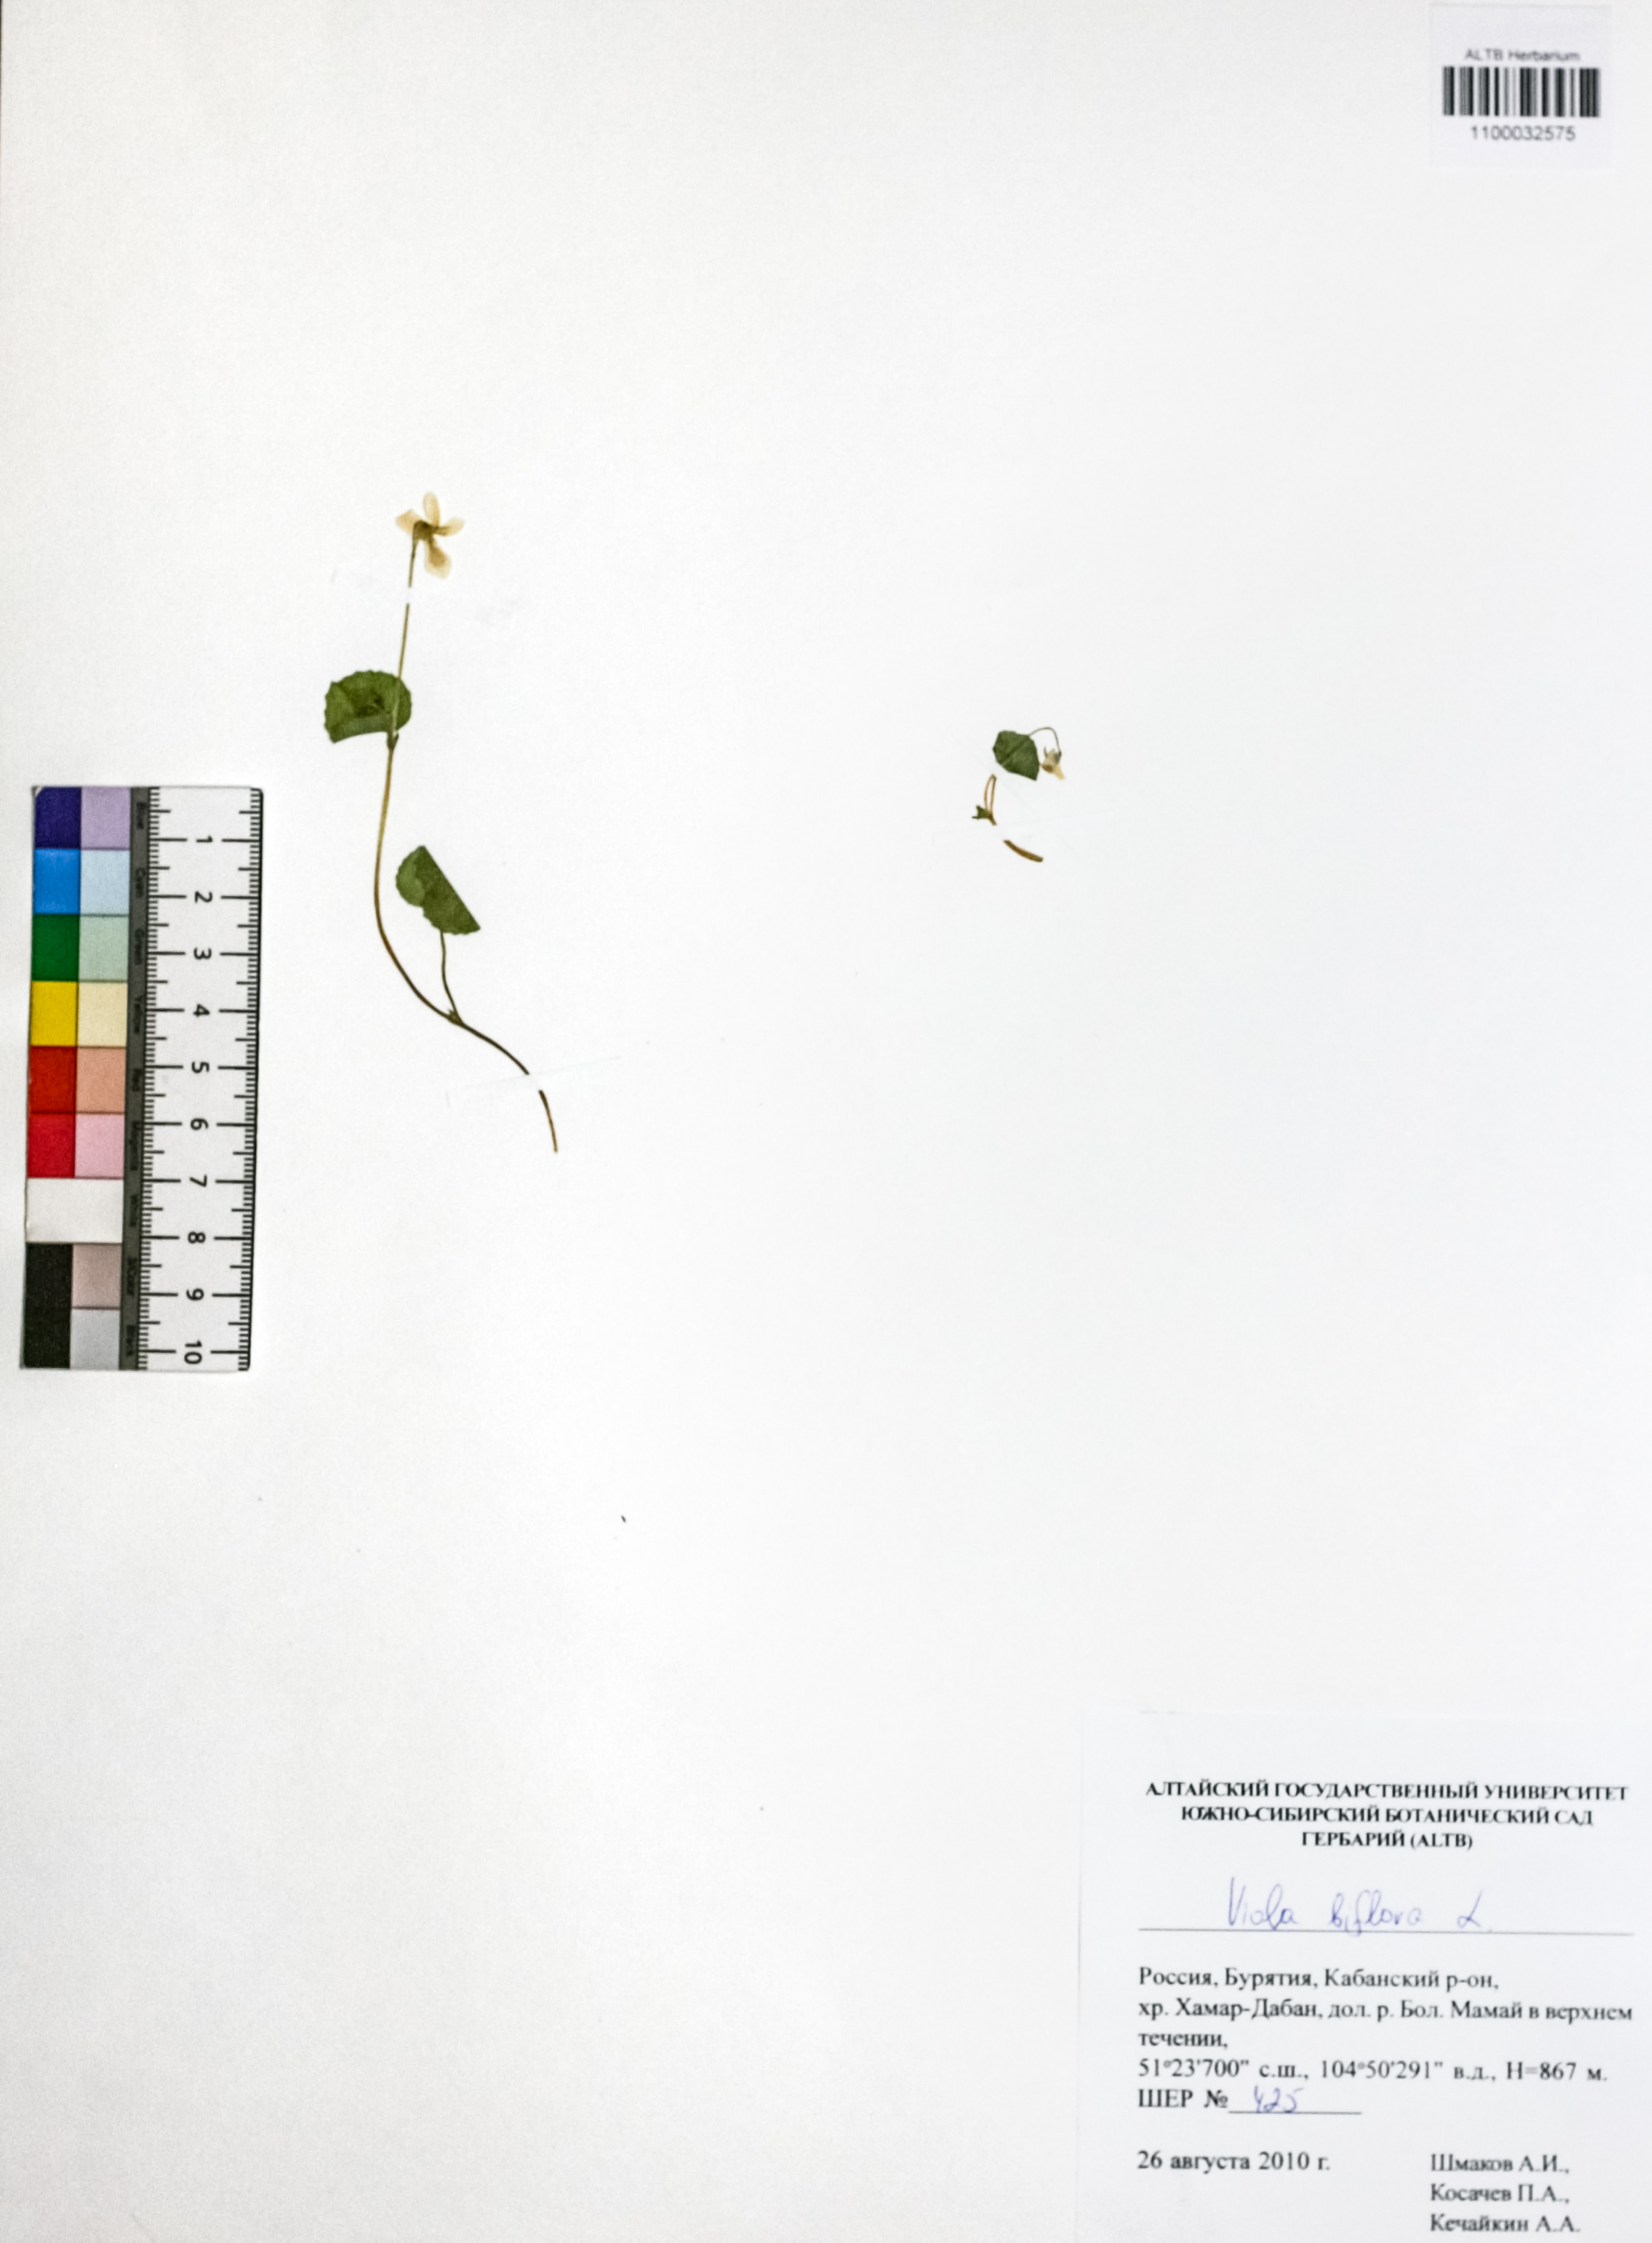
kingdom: Plantae
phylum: Tracheophyta
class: Magnoliopsida
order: Malpighiales
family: Violaceae
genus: Viola
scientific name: Viola biflora
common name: Alpine yellow violet
